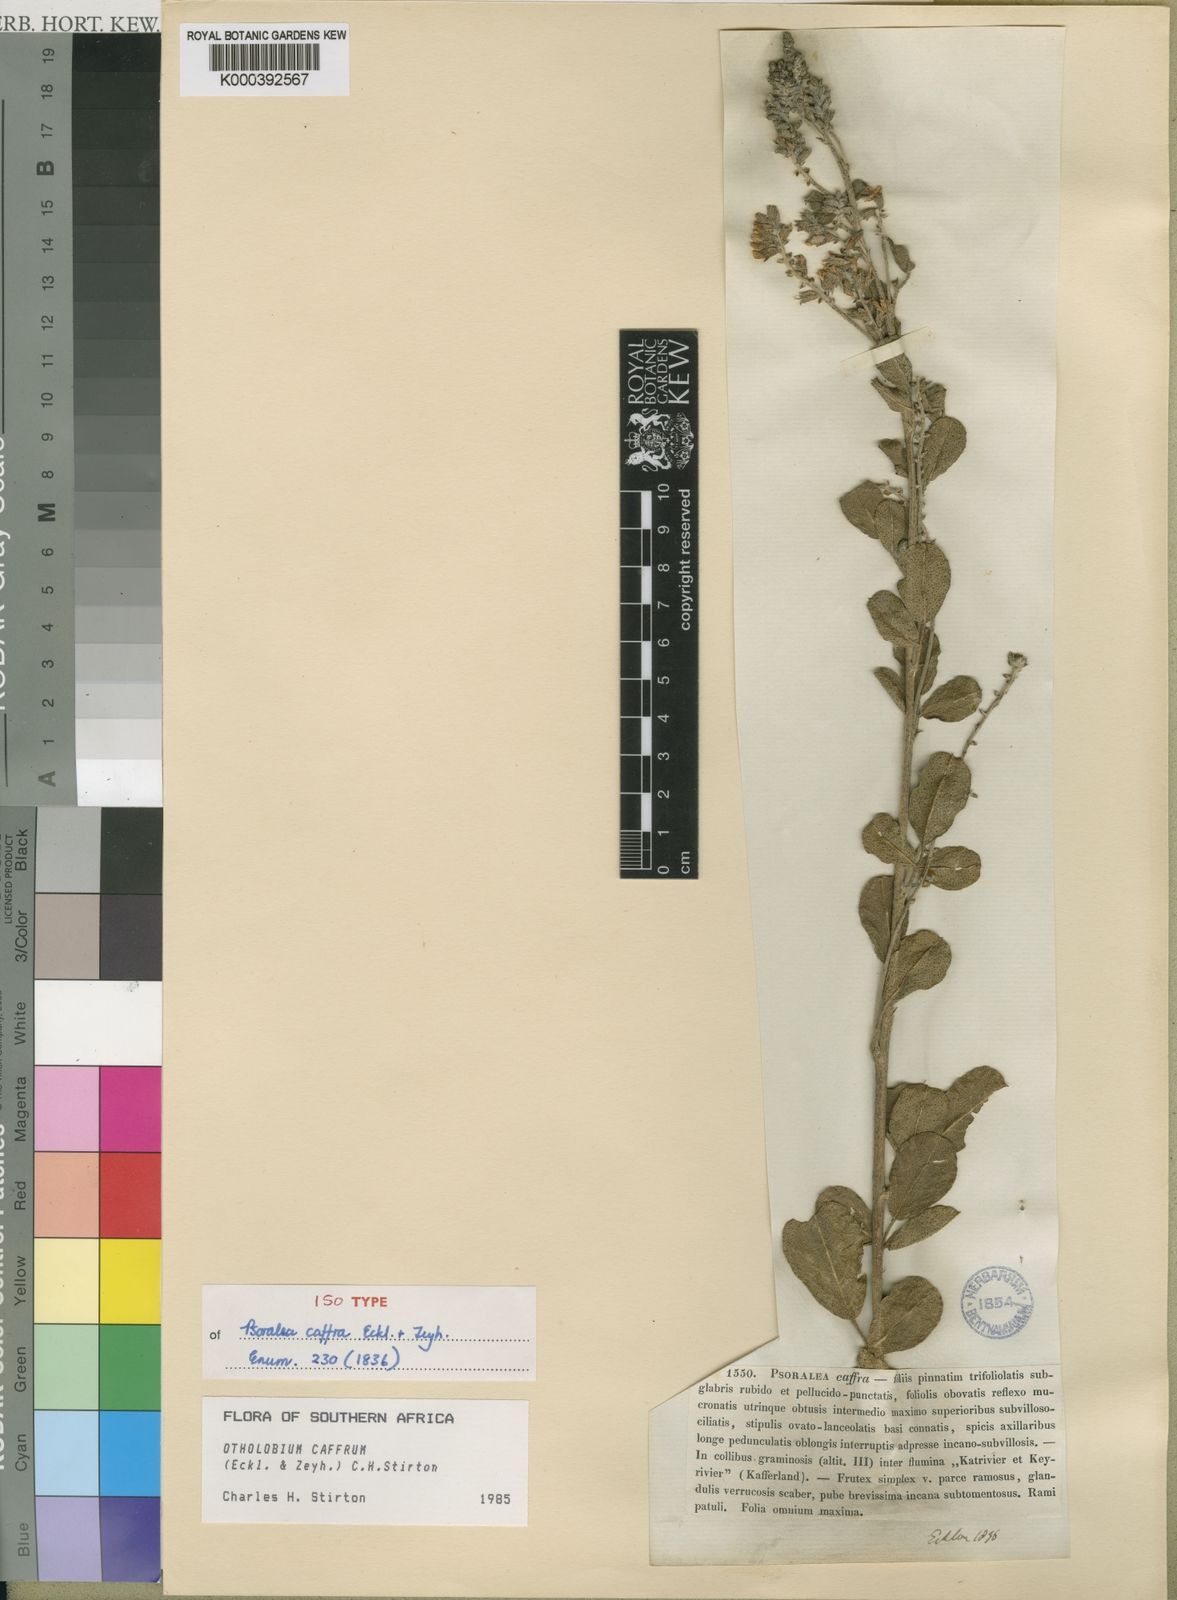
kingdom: Plantae
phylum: Tracheophyta
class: Magnoliopsida
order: Fabales
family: Fabaceae
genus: Psoralea
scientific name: Psoralea caffra
